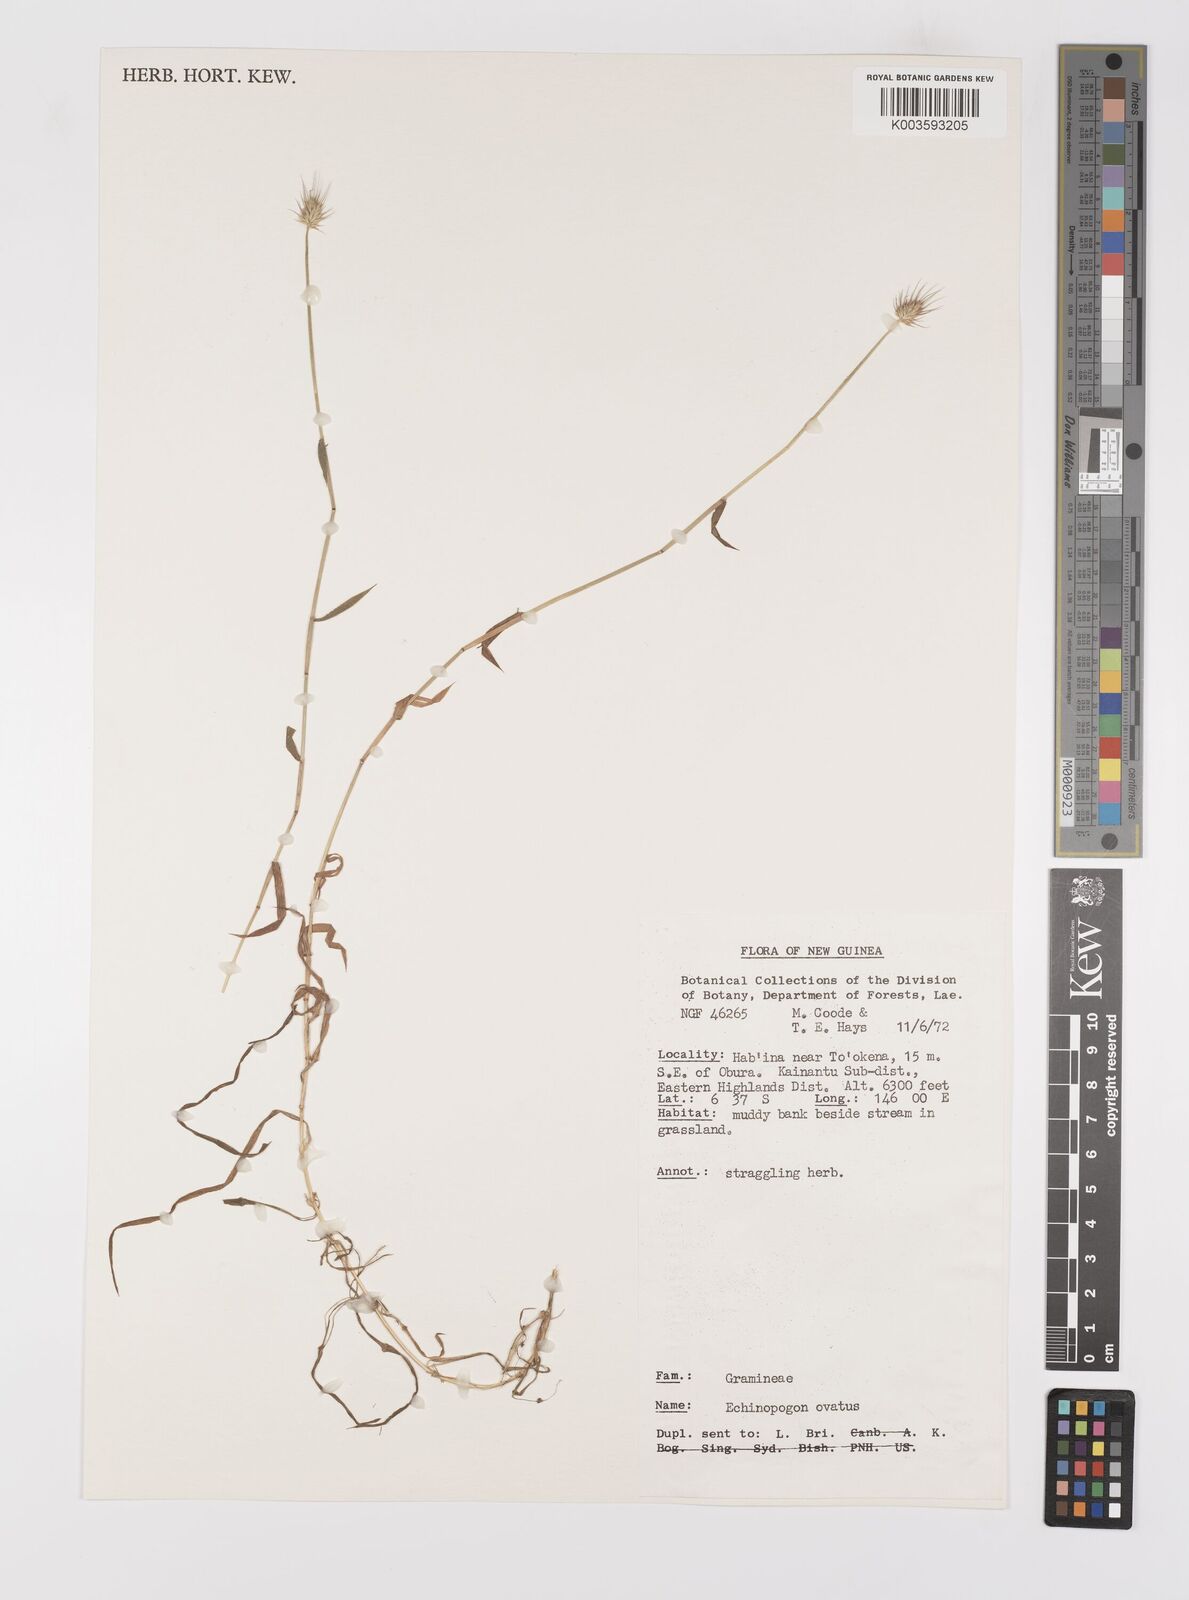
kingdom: Plantae
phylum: Tracheophyta
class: Liliopsida
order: Poales
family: Poaceae
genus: Echinopogon
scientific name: Echinopogon ovatus
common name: Hedgehog-grass
